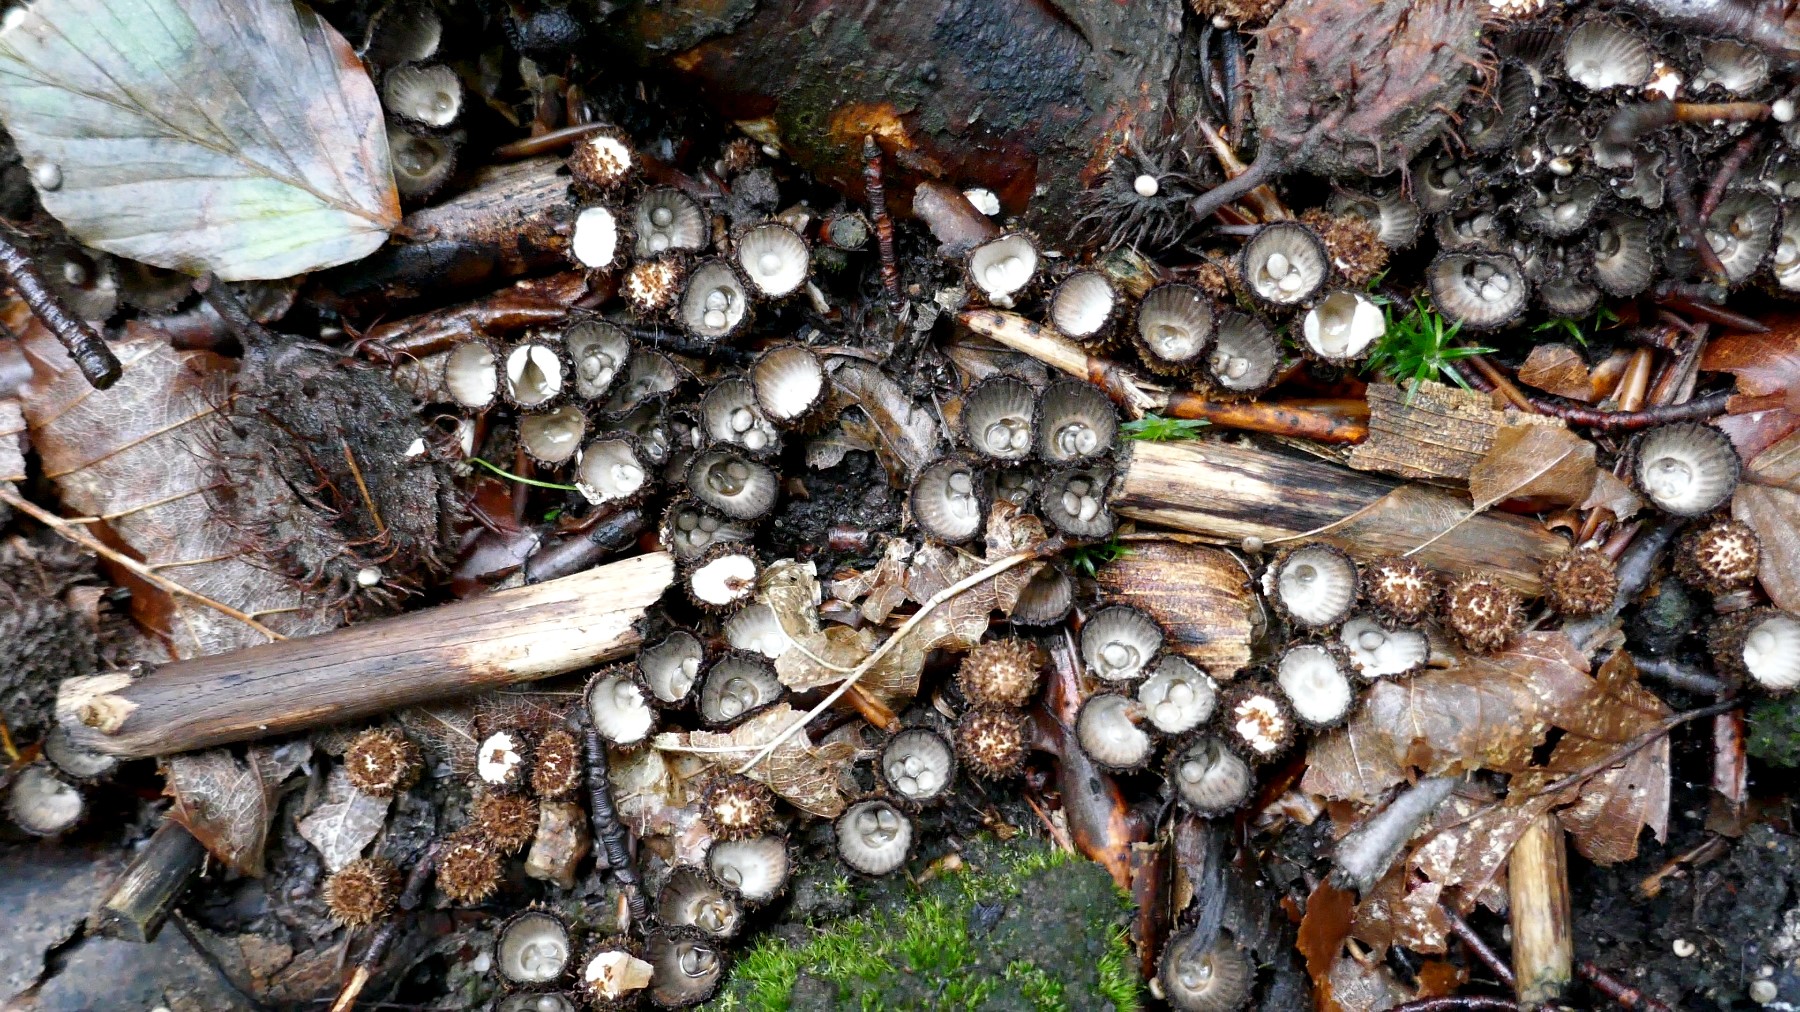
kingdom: Fungi
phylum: Basidiomycota
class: Agaricomycetes
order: Agaricales
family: Agaricaceae
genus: Cyathus
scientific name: Cyathus striatus
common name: stribet redesvamp
